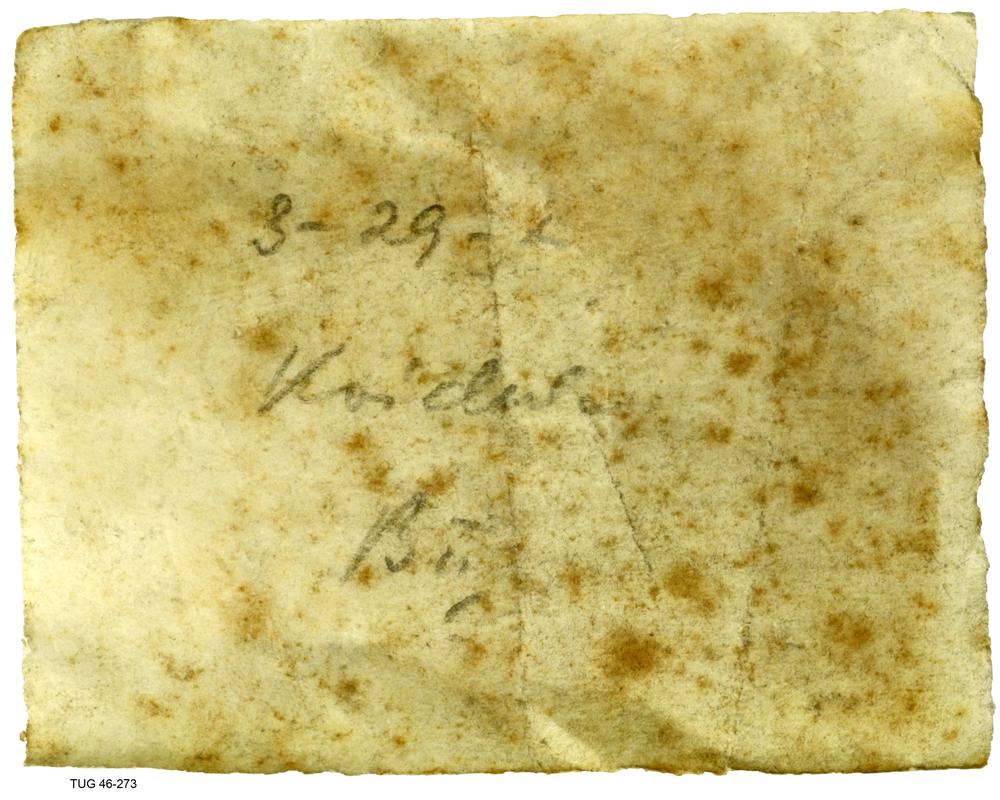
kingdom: Animalia
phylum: Brachiopoda
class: Lingulata
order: Siphonotretida
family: Siphonotretidae
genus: Siphonotreta
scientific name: Siphonotreta
